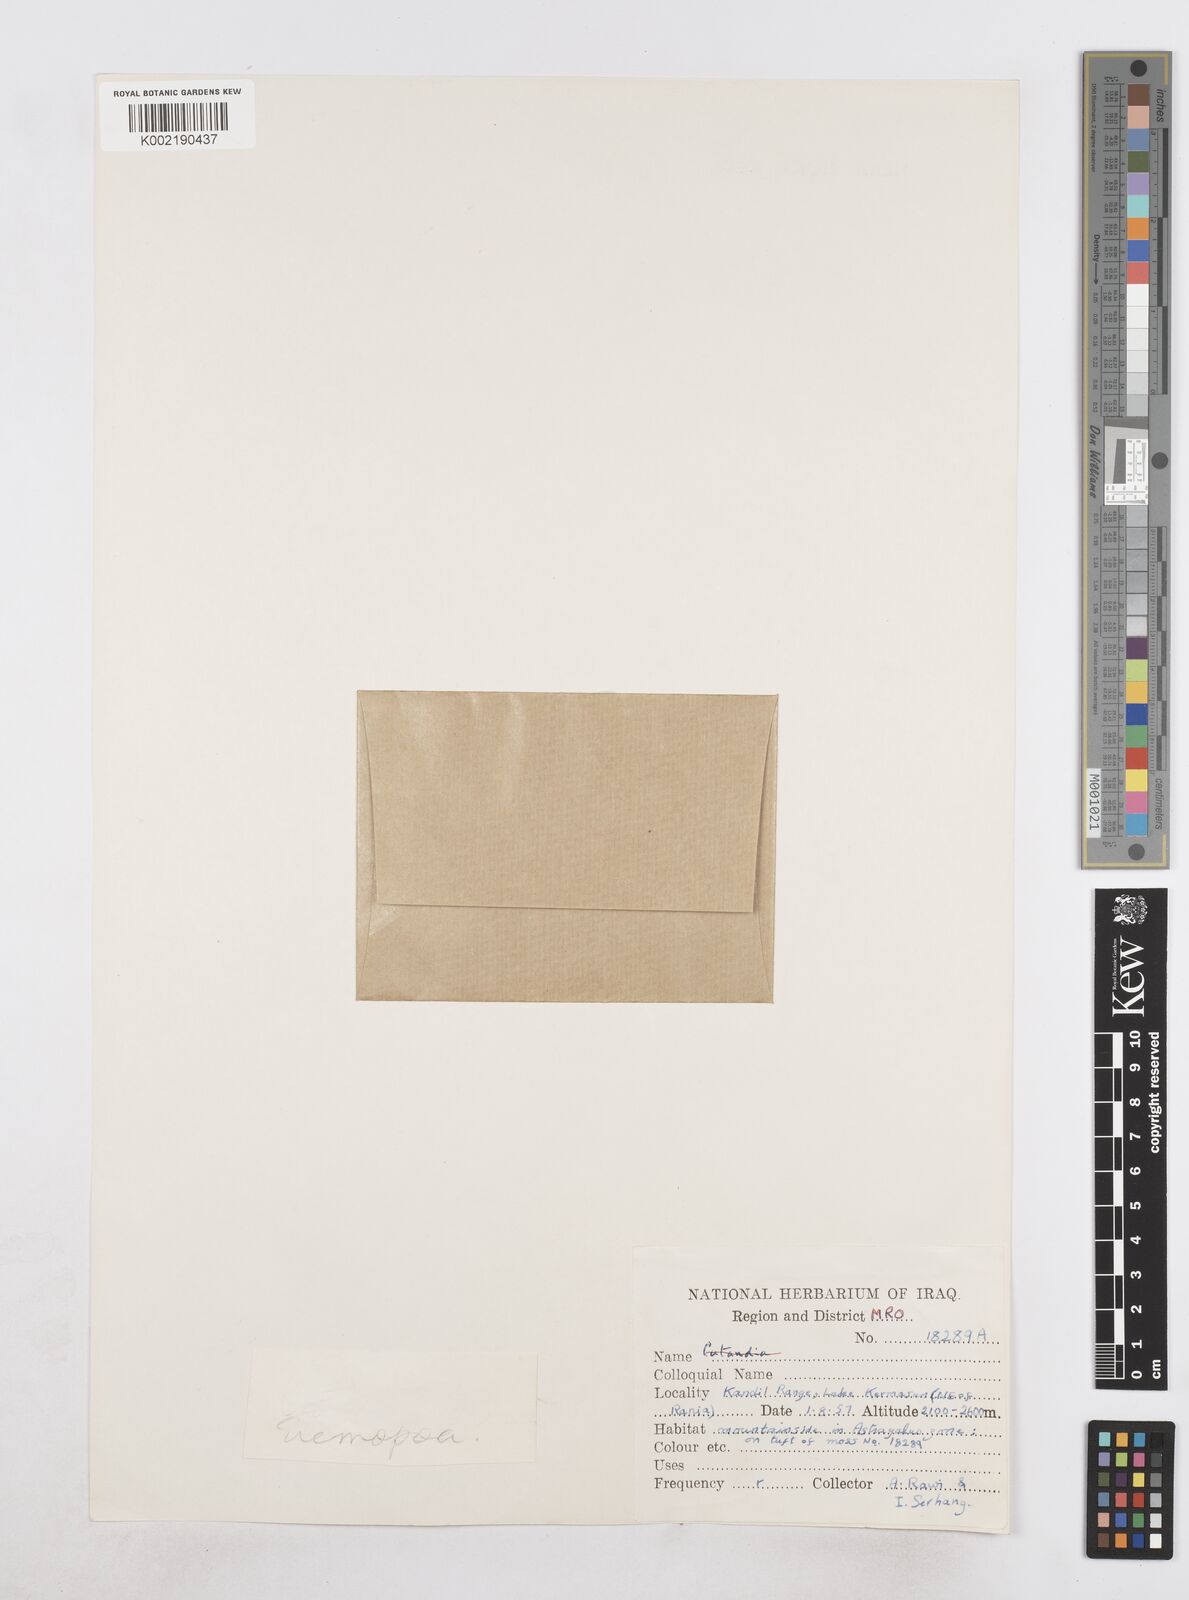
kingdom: Plantae
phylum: Tracheophyta
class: Liliopsida
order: Poales
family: Poaceae
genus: Poa
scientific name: Poa diaphora
